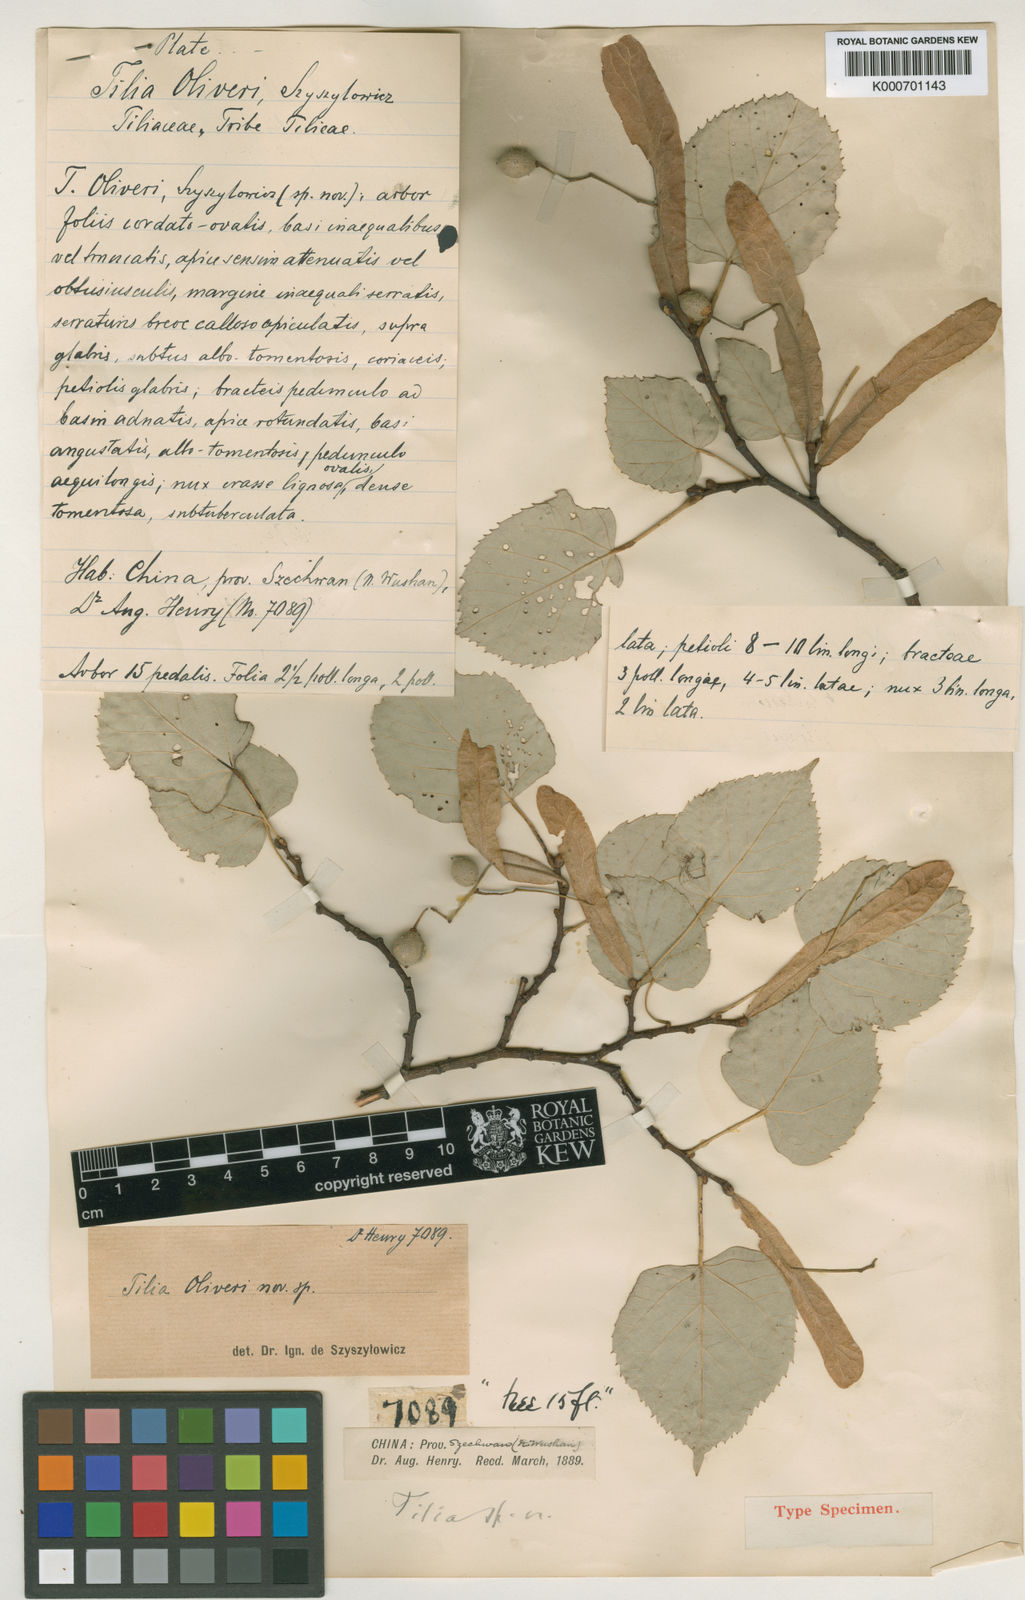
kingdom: Plantae
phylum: Tracheophyta
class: Magnoliopsida
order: Malvales
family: Malvaceae
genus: Tilia
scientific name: Tilia oliveri
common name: Oliver's lime
